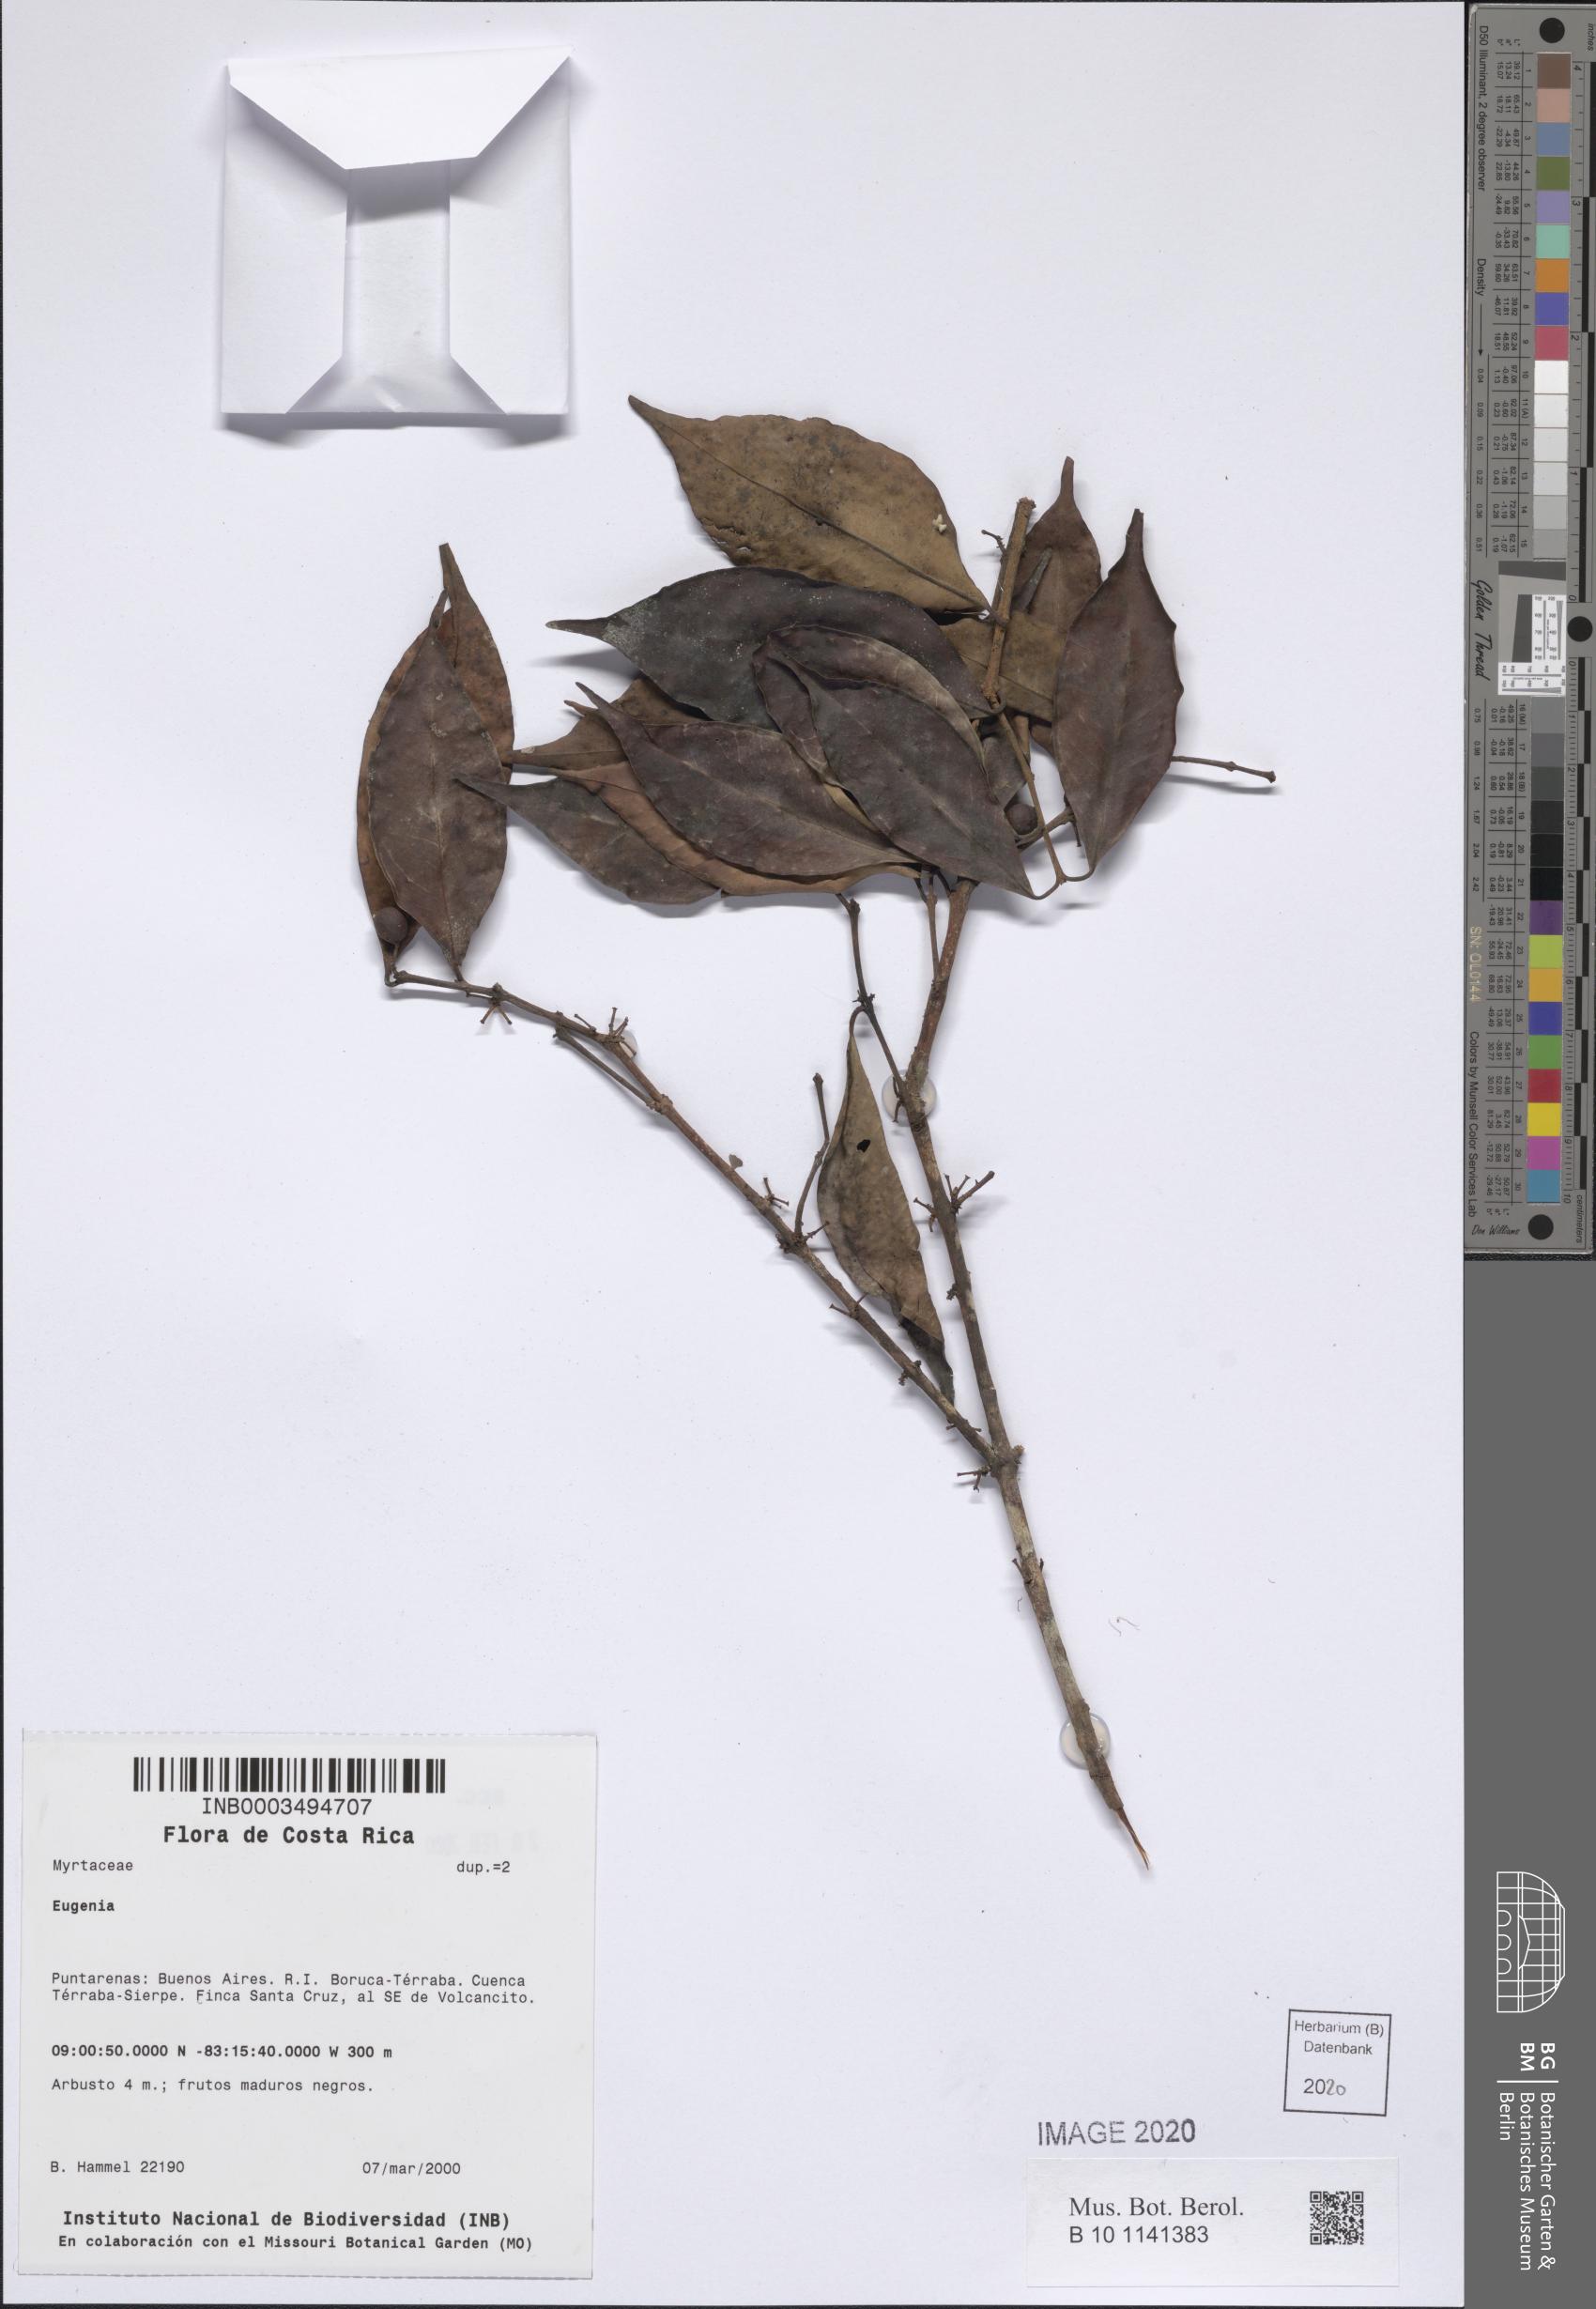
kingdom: Plantae
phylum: Tracheophyta
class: Magnoliopsida
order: Myrtales
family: Myrtaceae
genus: Eugenia
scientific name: Eugenia
